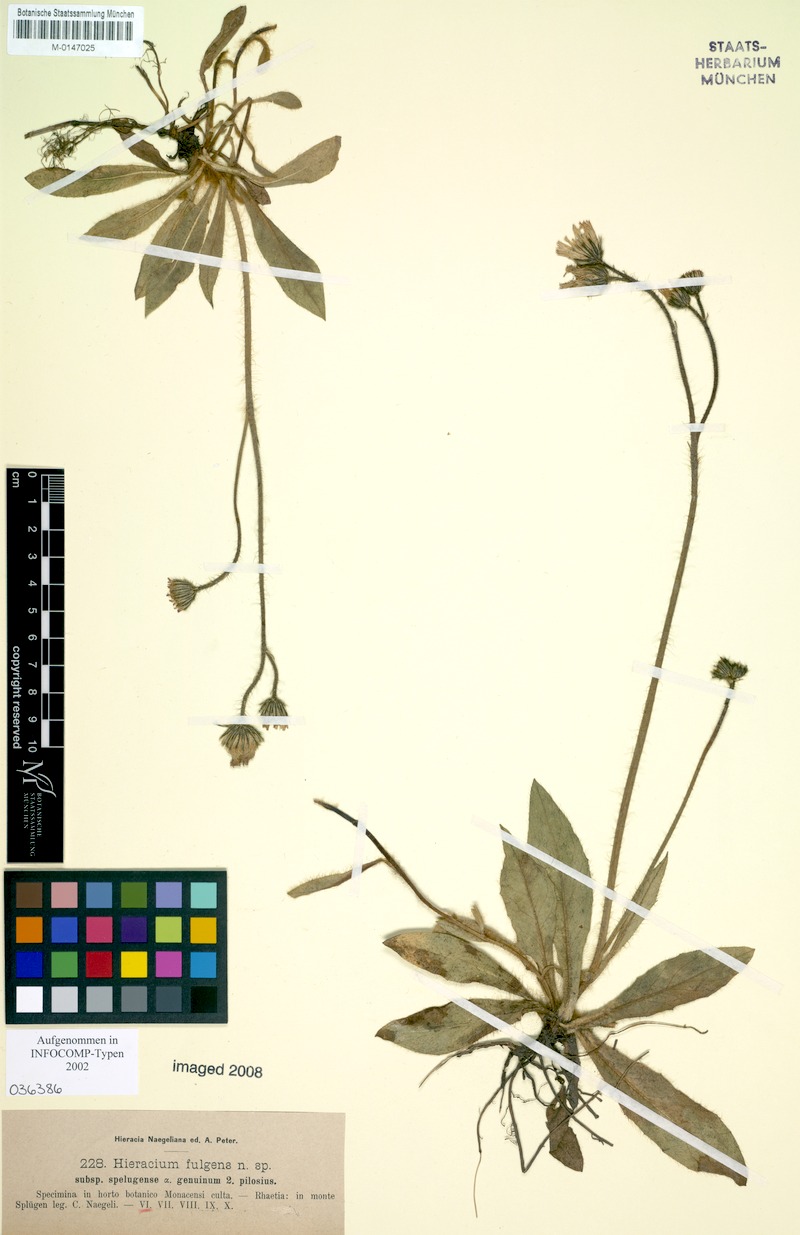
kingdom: Plantae
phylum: Tracheophyta
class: Magnoliopsida
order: Asterales
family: Asteraceae
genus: Pilosella
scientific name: Pilosella notha
